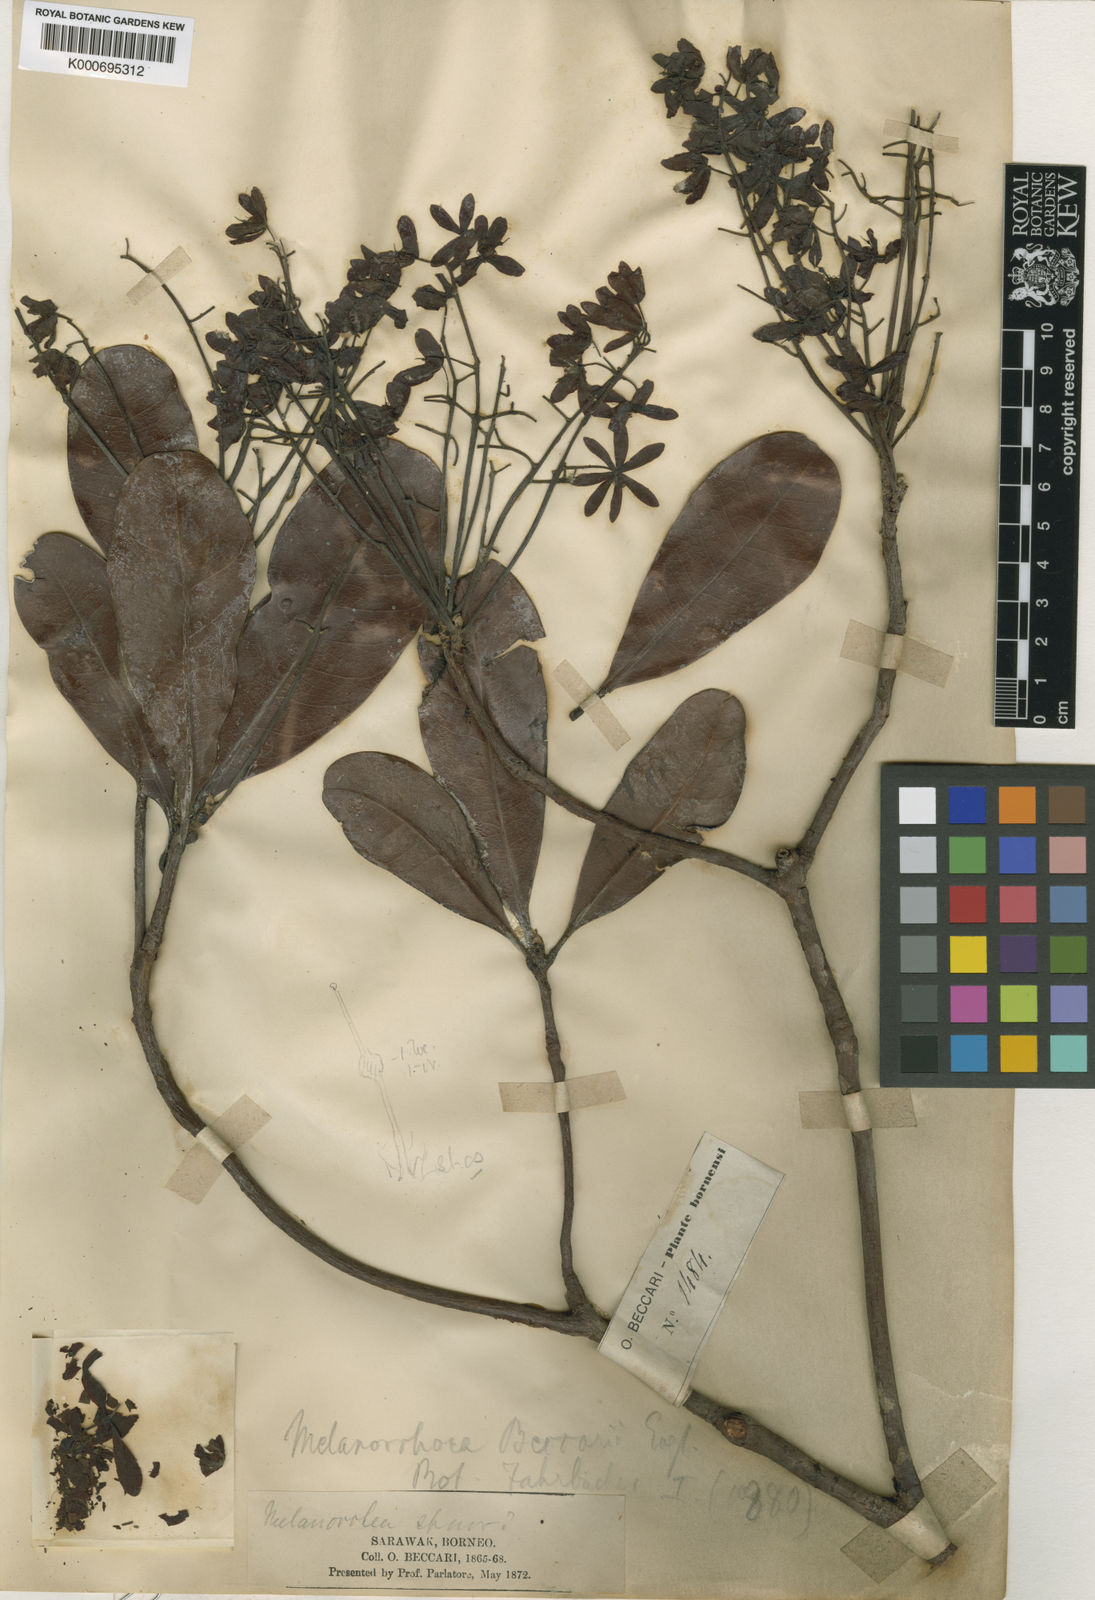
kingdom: Plantae
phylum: Tracheophyta
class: Magnoliopsida
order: Sapindales
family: Anacardiaceae
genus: Gluta
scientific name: Gluta beccarii
